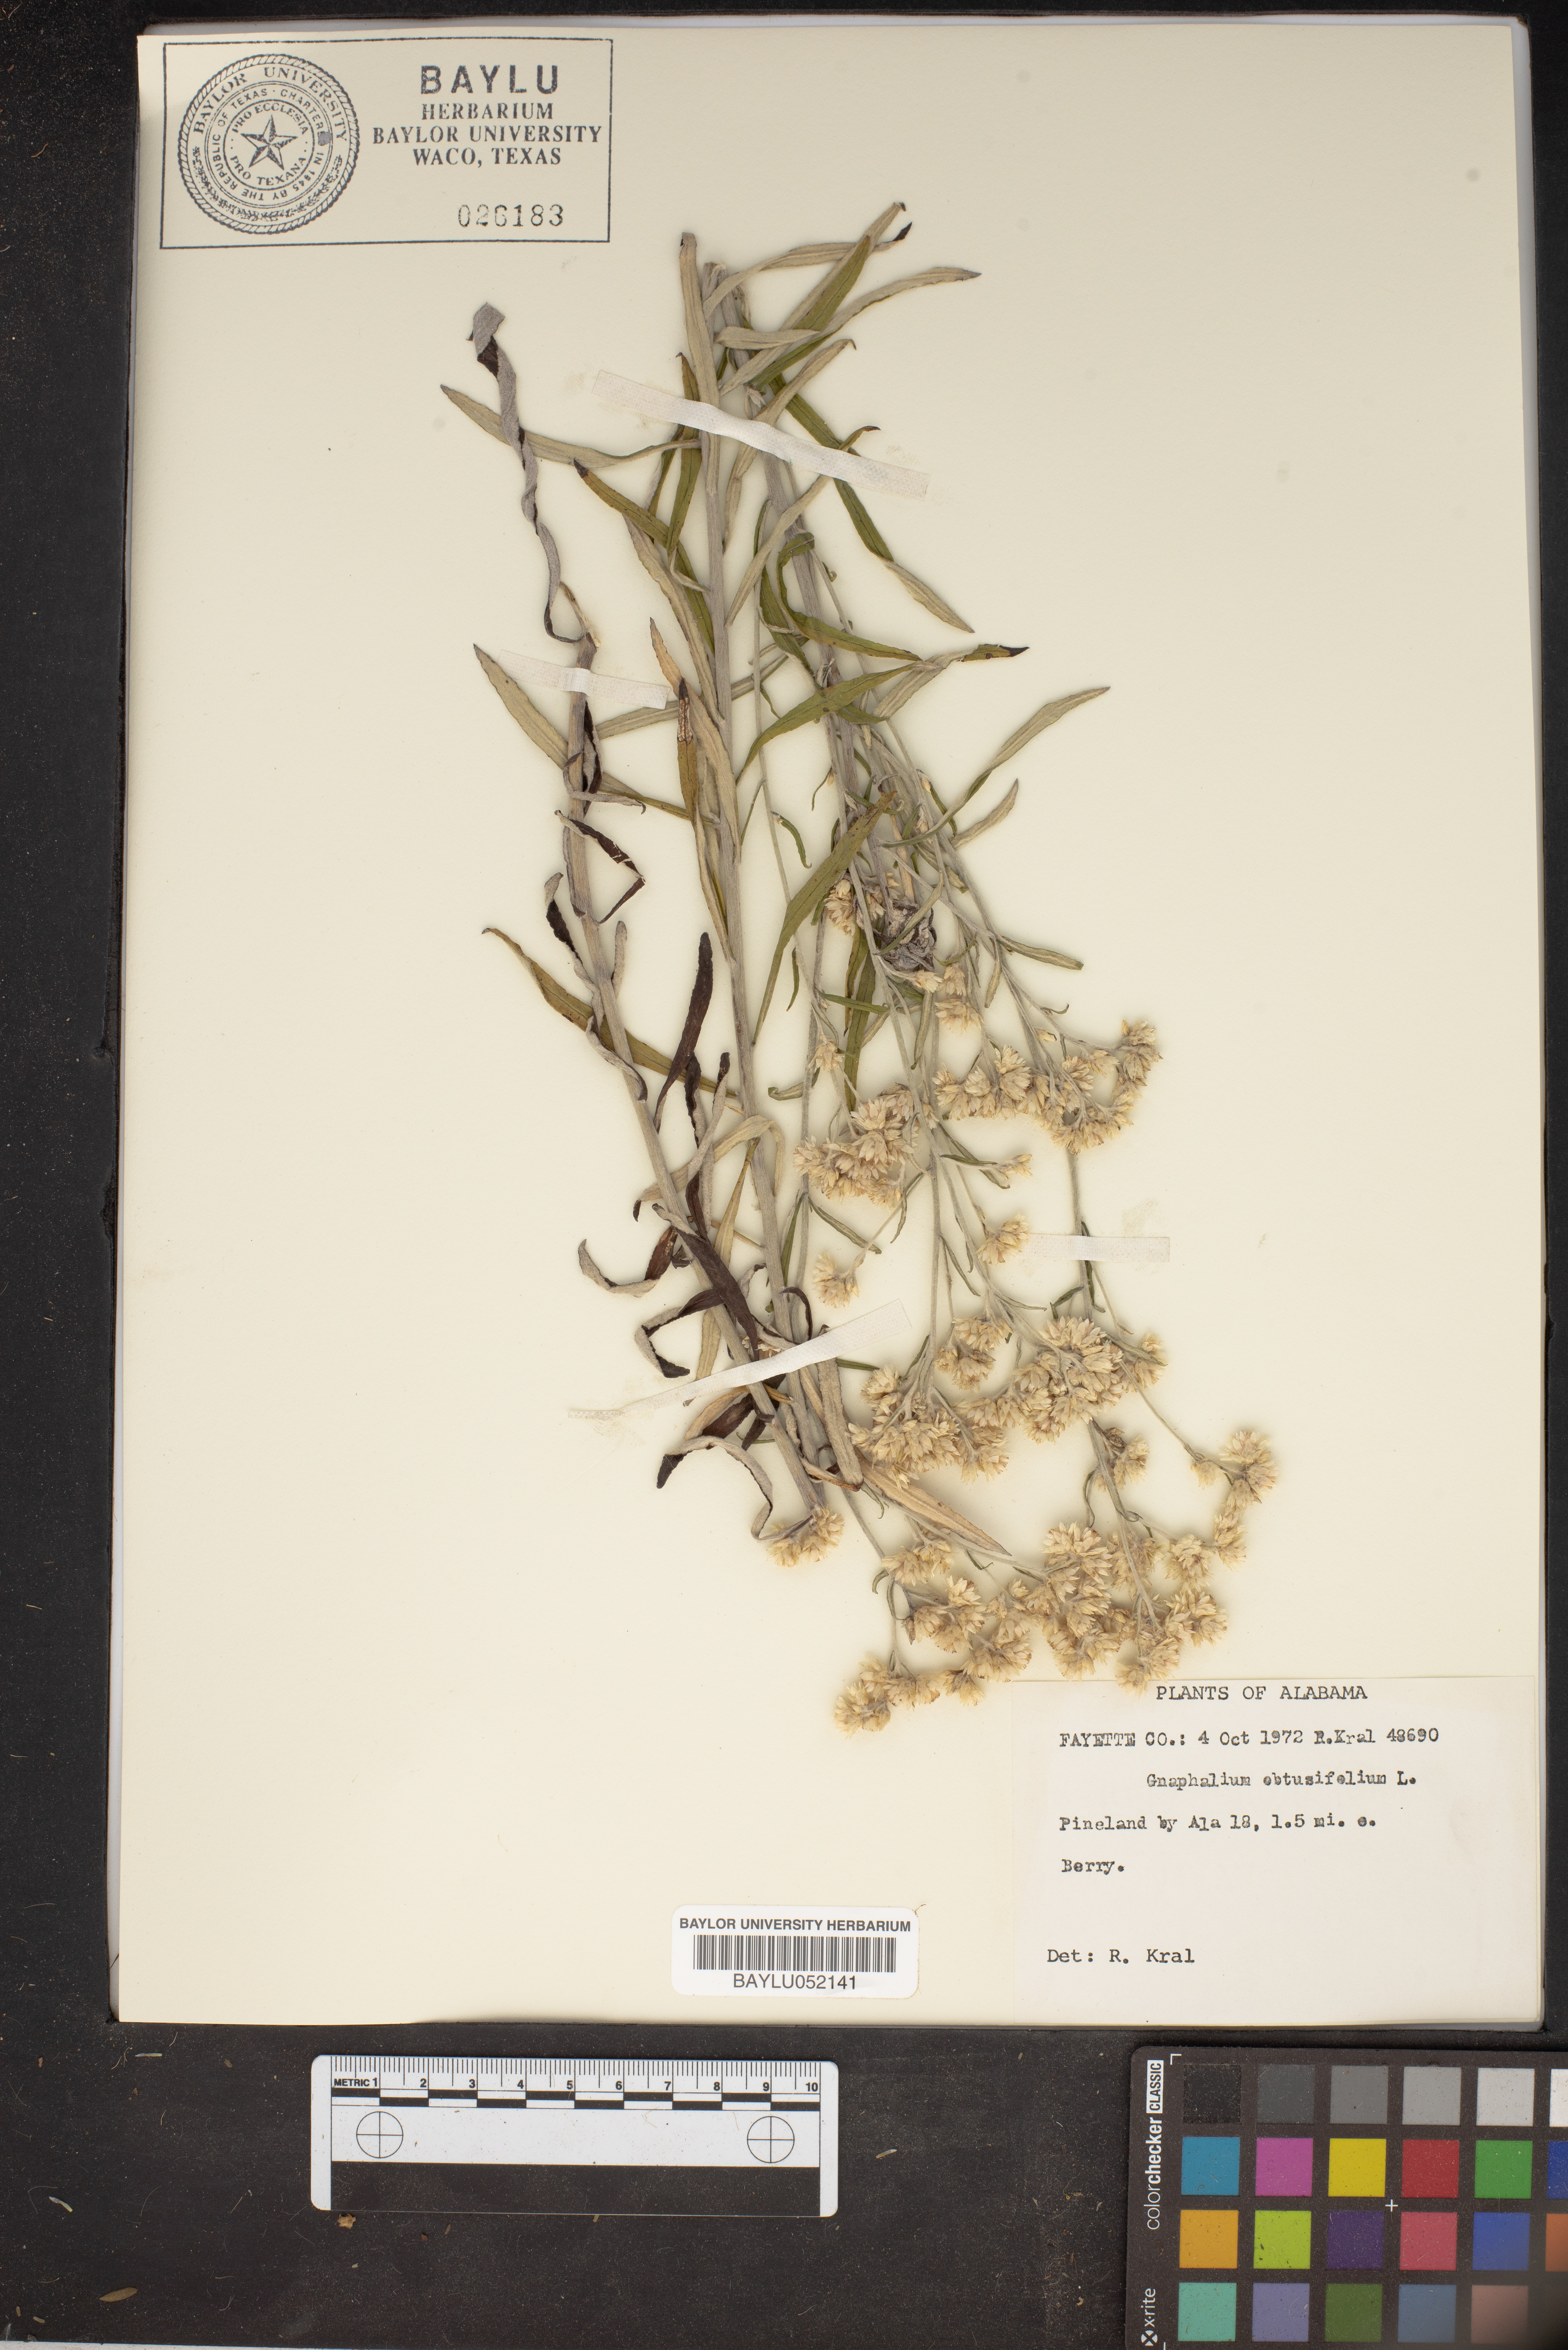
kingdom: Plantae
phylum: Tracheophyta
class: Magnoliopsida
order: Asterales
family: Asteraceae
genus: Pseudognaphalium
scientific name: Pseudognaphalium obtusifolium
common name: Eastern rabbit-tobacco
